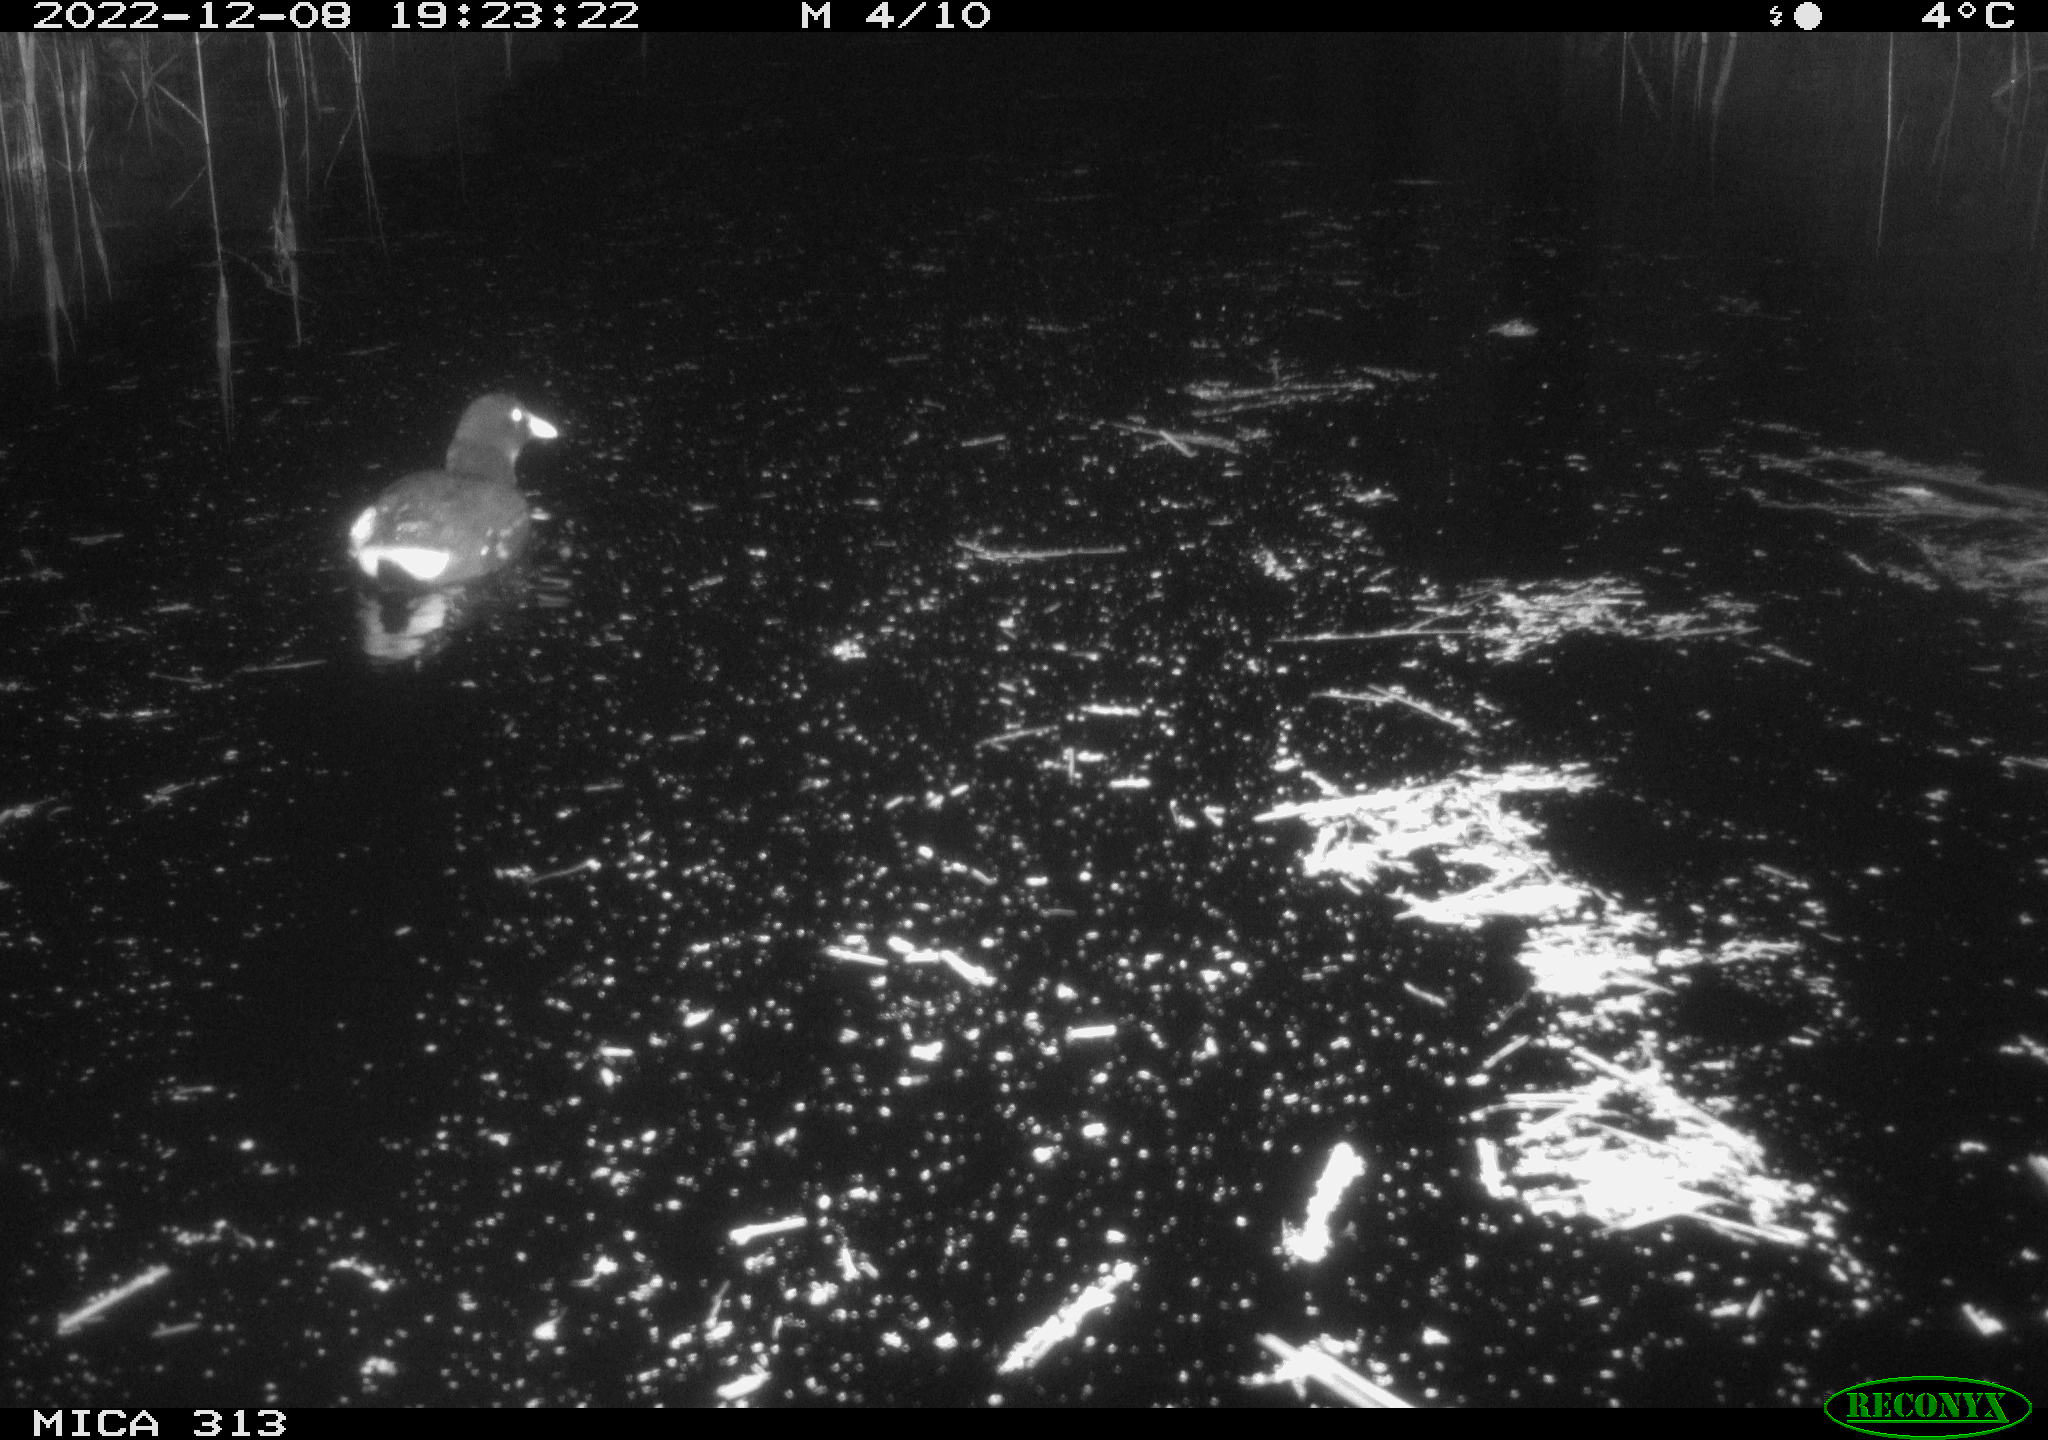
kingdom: Animalia
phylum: Chordata
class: Aves
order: Gruiformes
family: Rallidae
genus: Gallinula
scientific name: Gallinula chloropus
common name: Common moorhen
